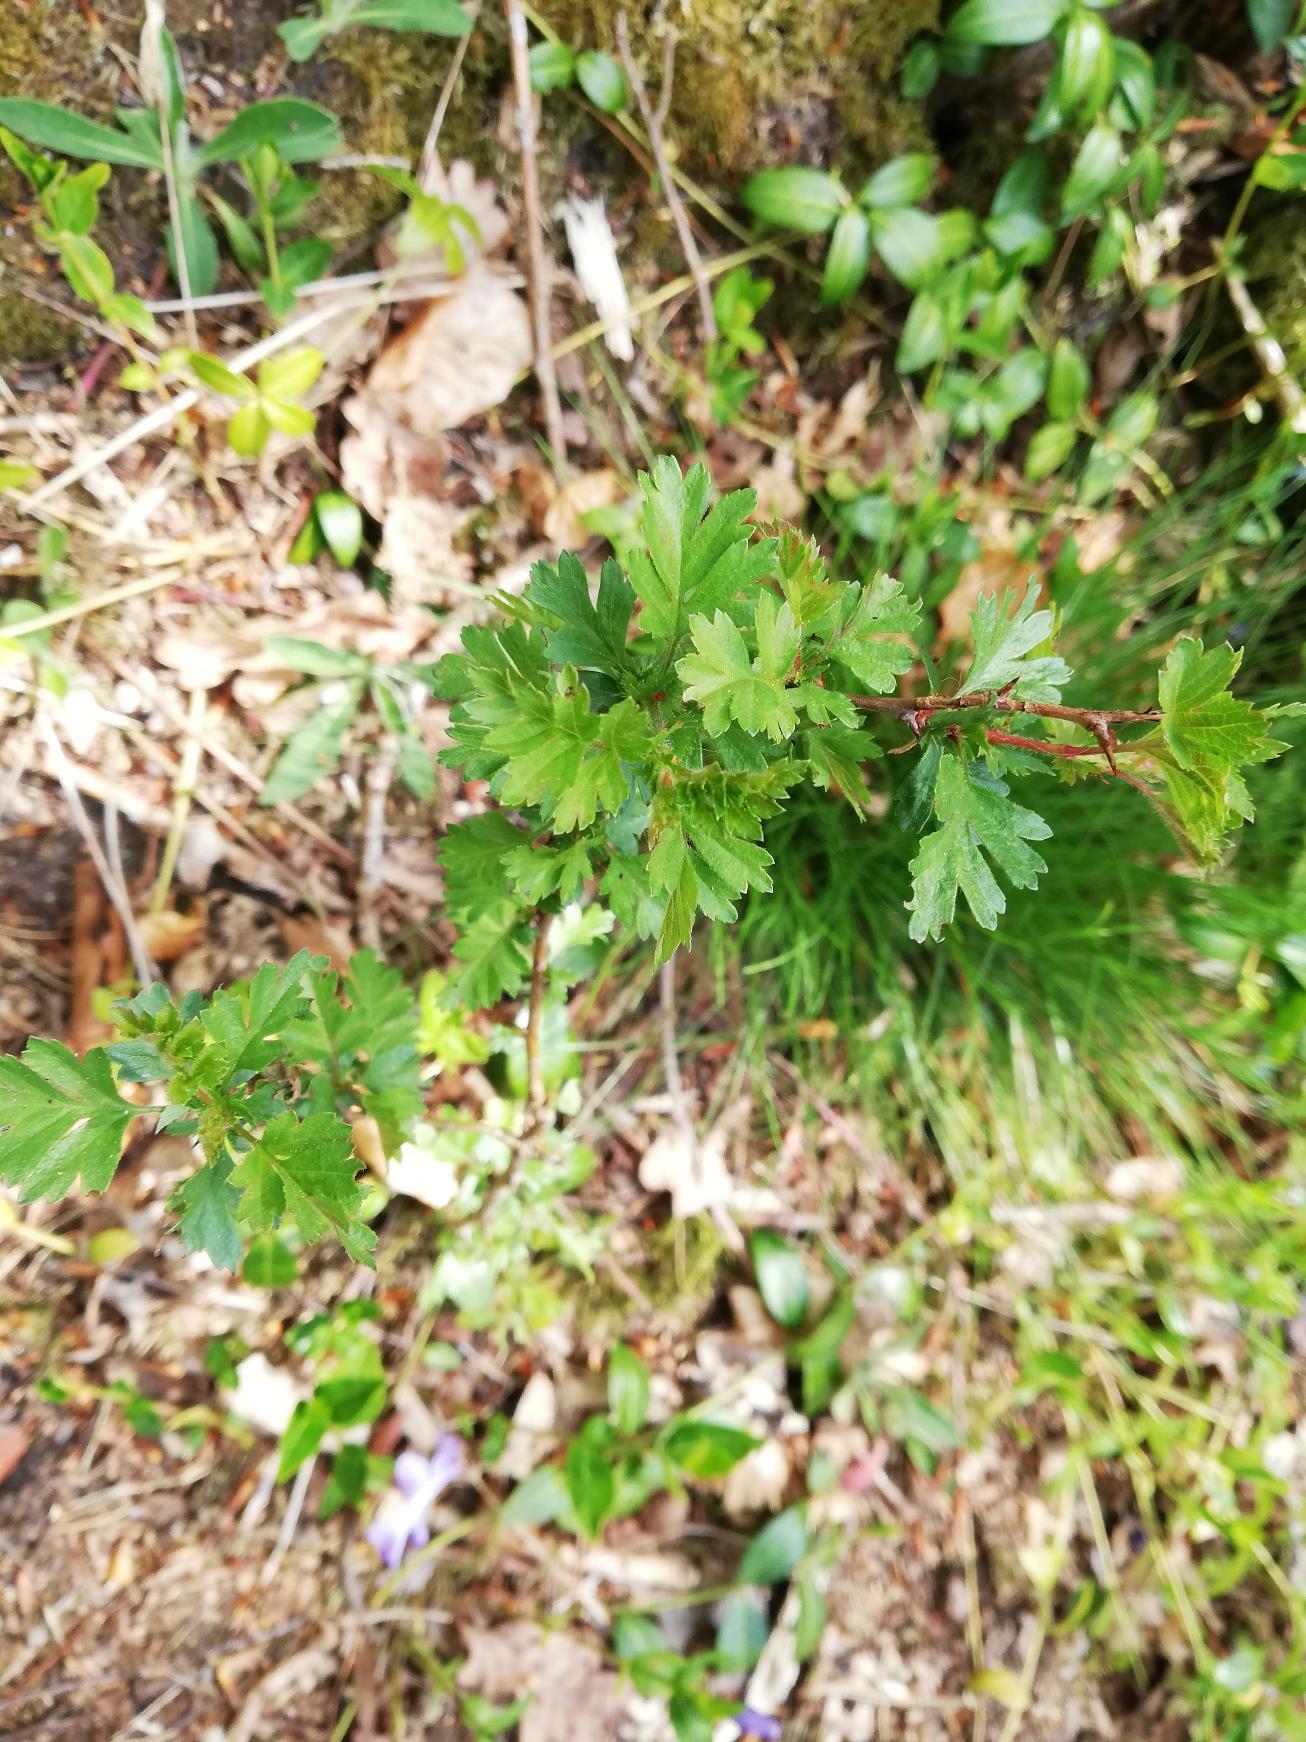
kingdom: Plantae
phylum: Tracheophyta
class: Magnoliopsida
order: Rosales
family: Rosaceae
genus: Crataegus
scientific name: Crataegus monogyna
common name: Engriflet hvidtjørn
